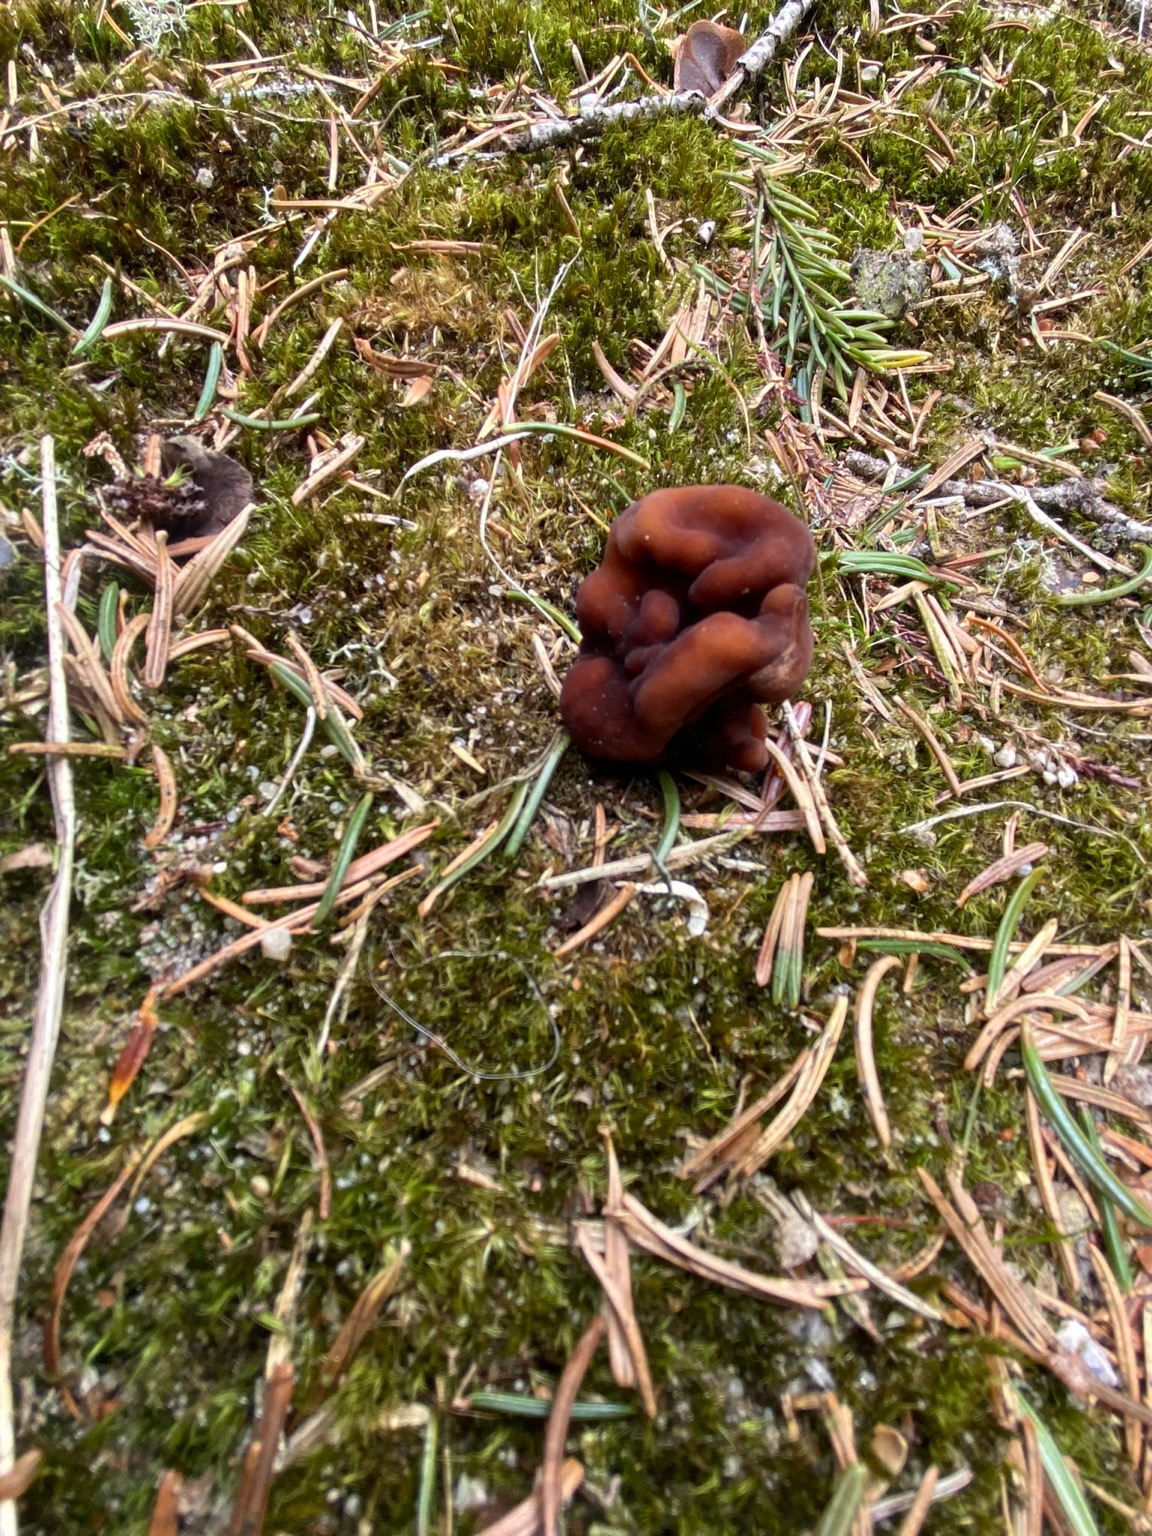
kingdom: Fungi
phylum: Ascomycota
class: Pezizomycetes
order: Pezizales
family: Discinaceae
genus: Gyromitra
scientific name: Gyromitra esculenta
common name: Ægte stenmorkel
